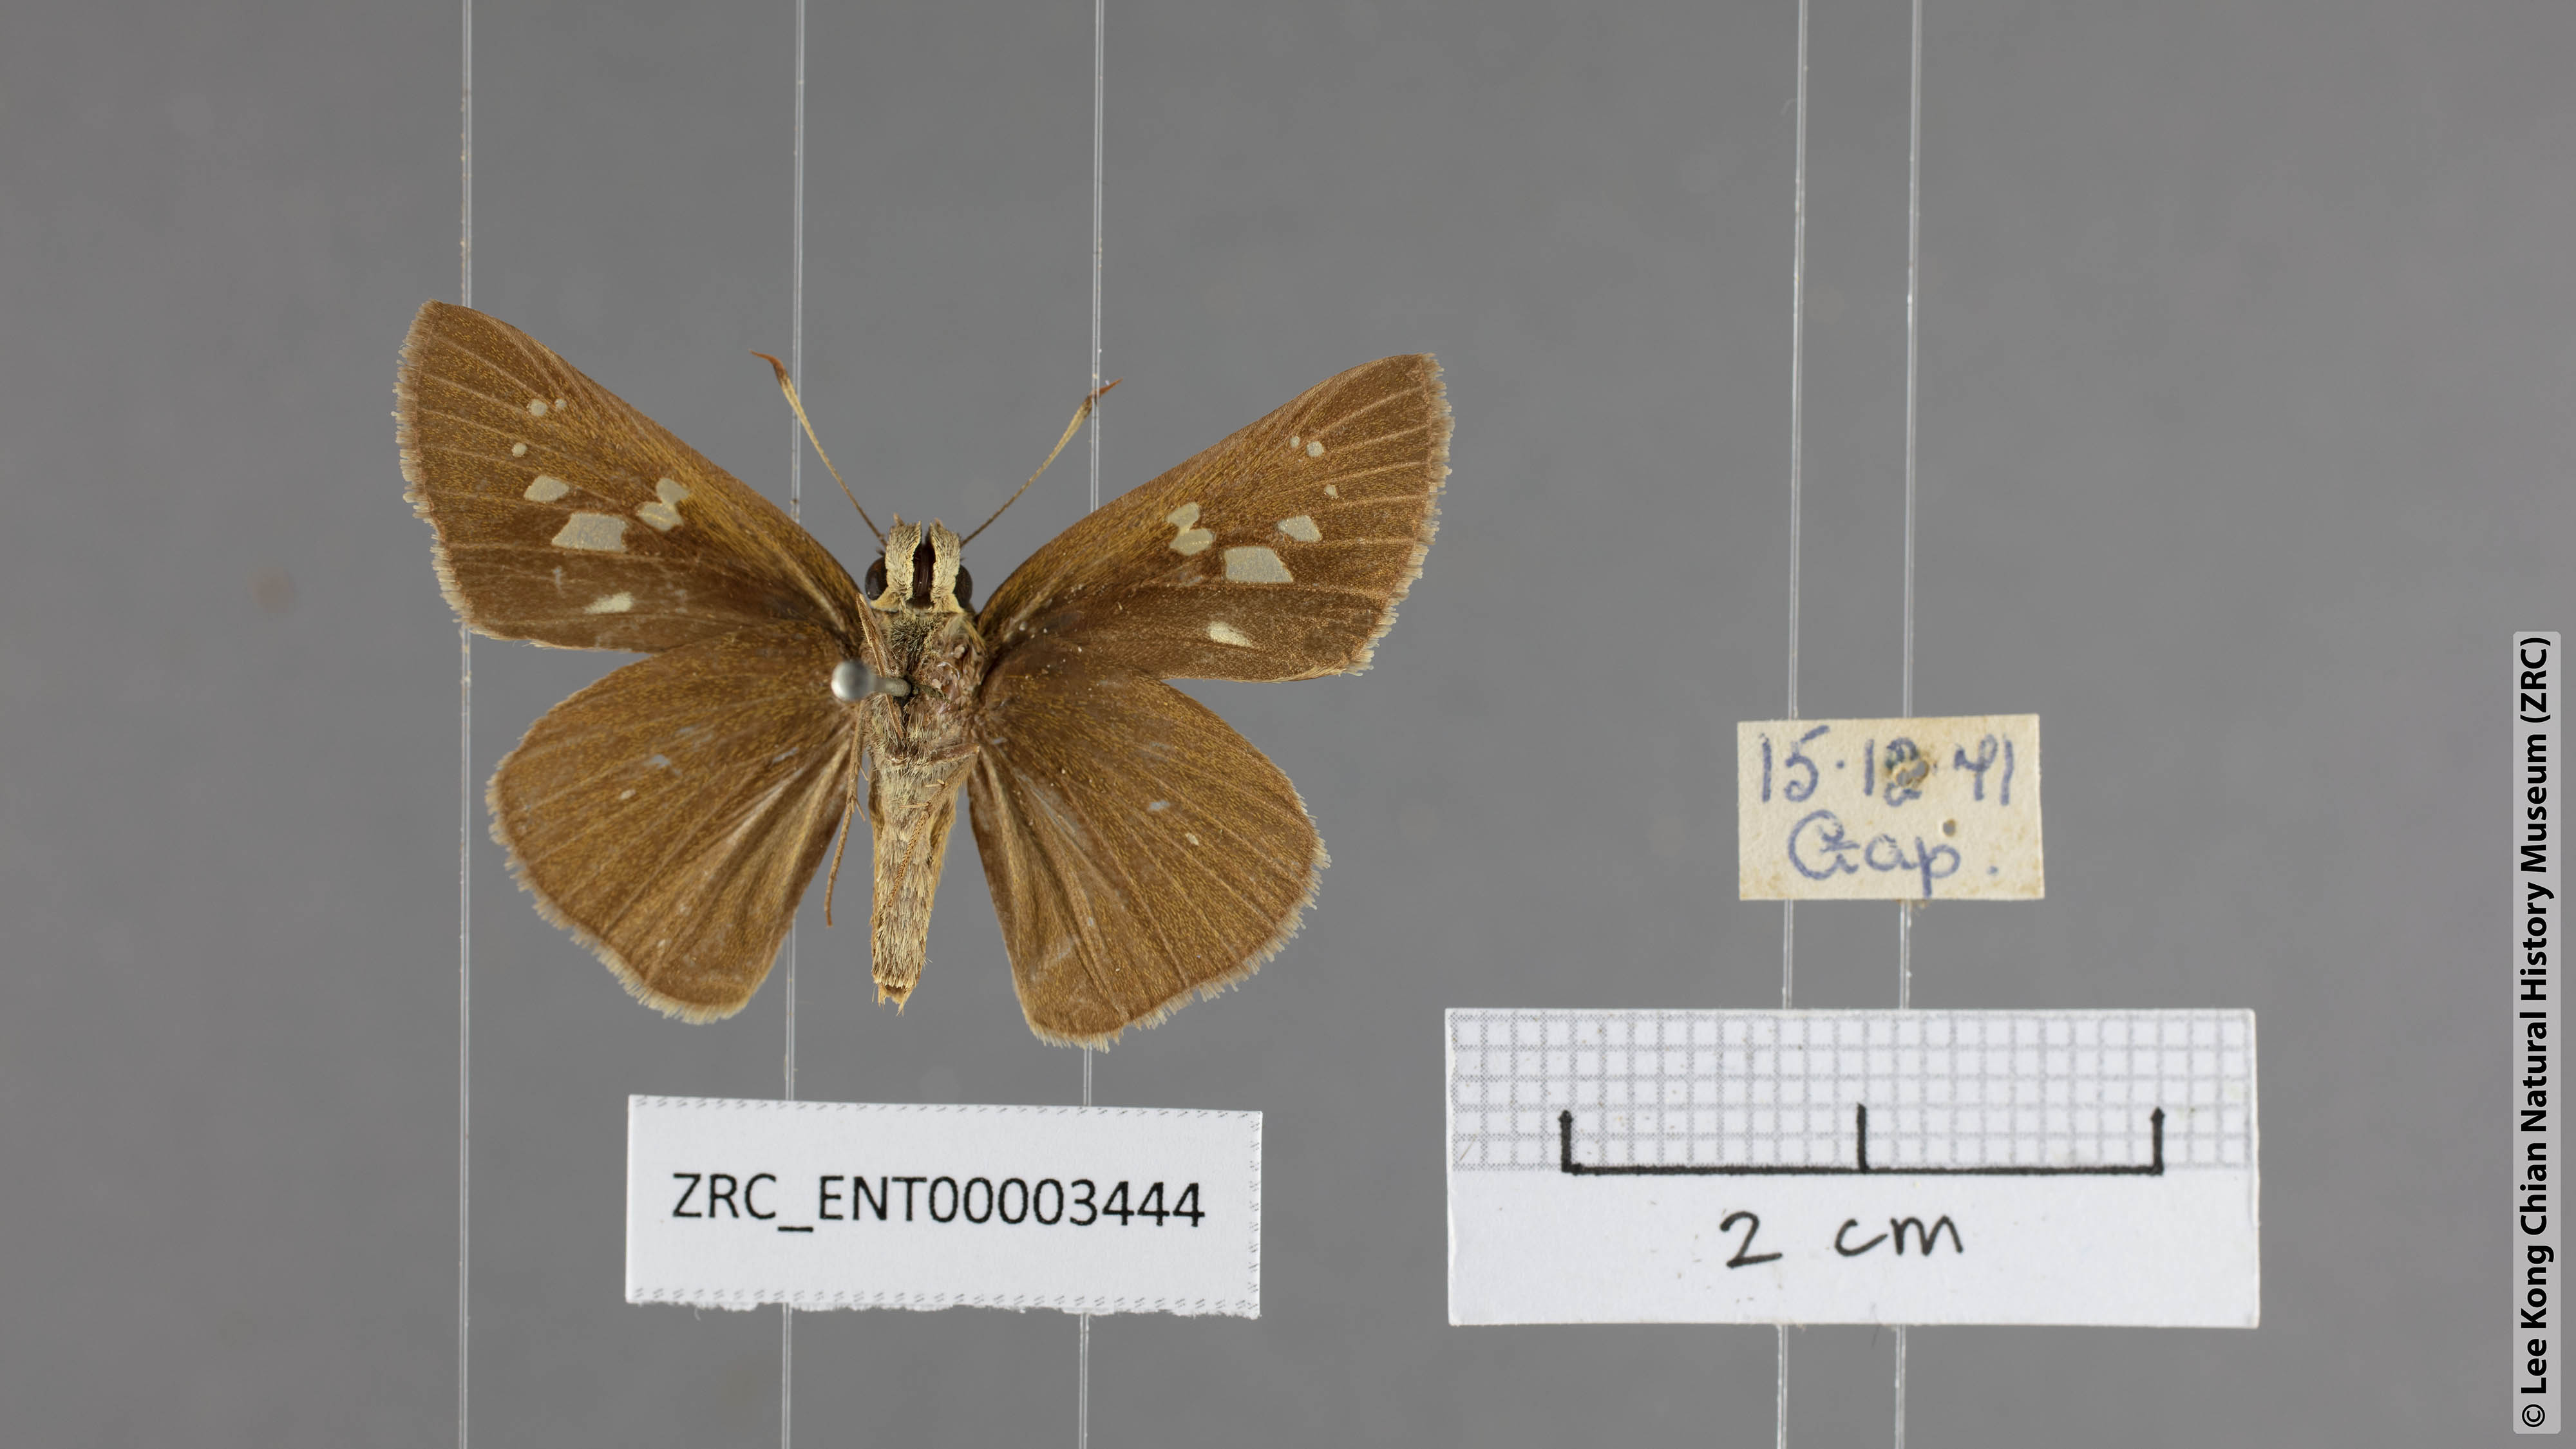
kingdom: Animalia
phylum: Arthropoda
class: Insecta
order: Lepidoptera
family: Hesperiidae
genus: Polytremis
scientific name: Polytremis eltola
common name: Yellow-spot swift
